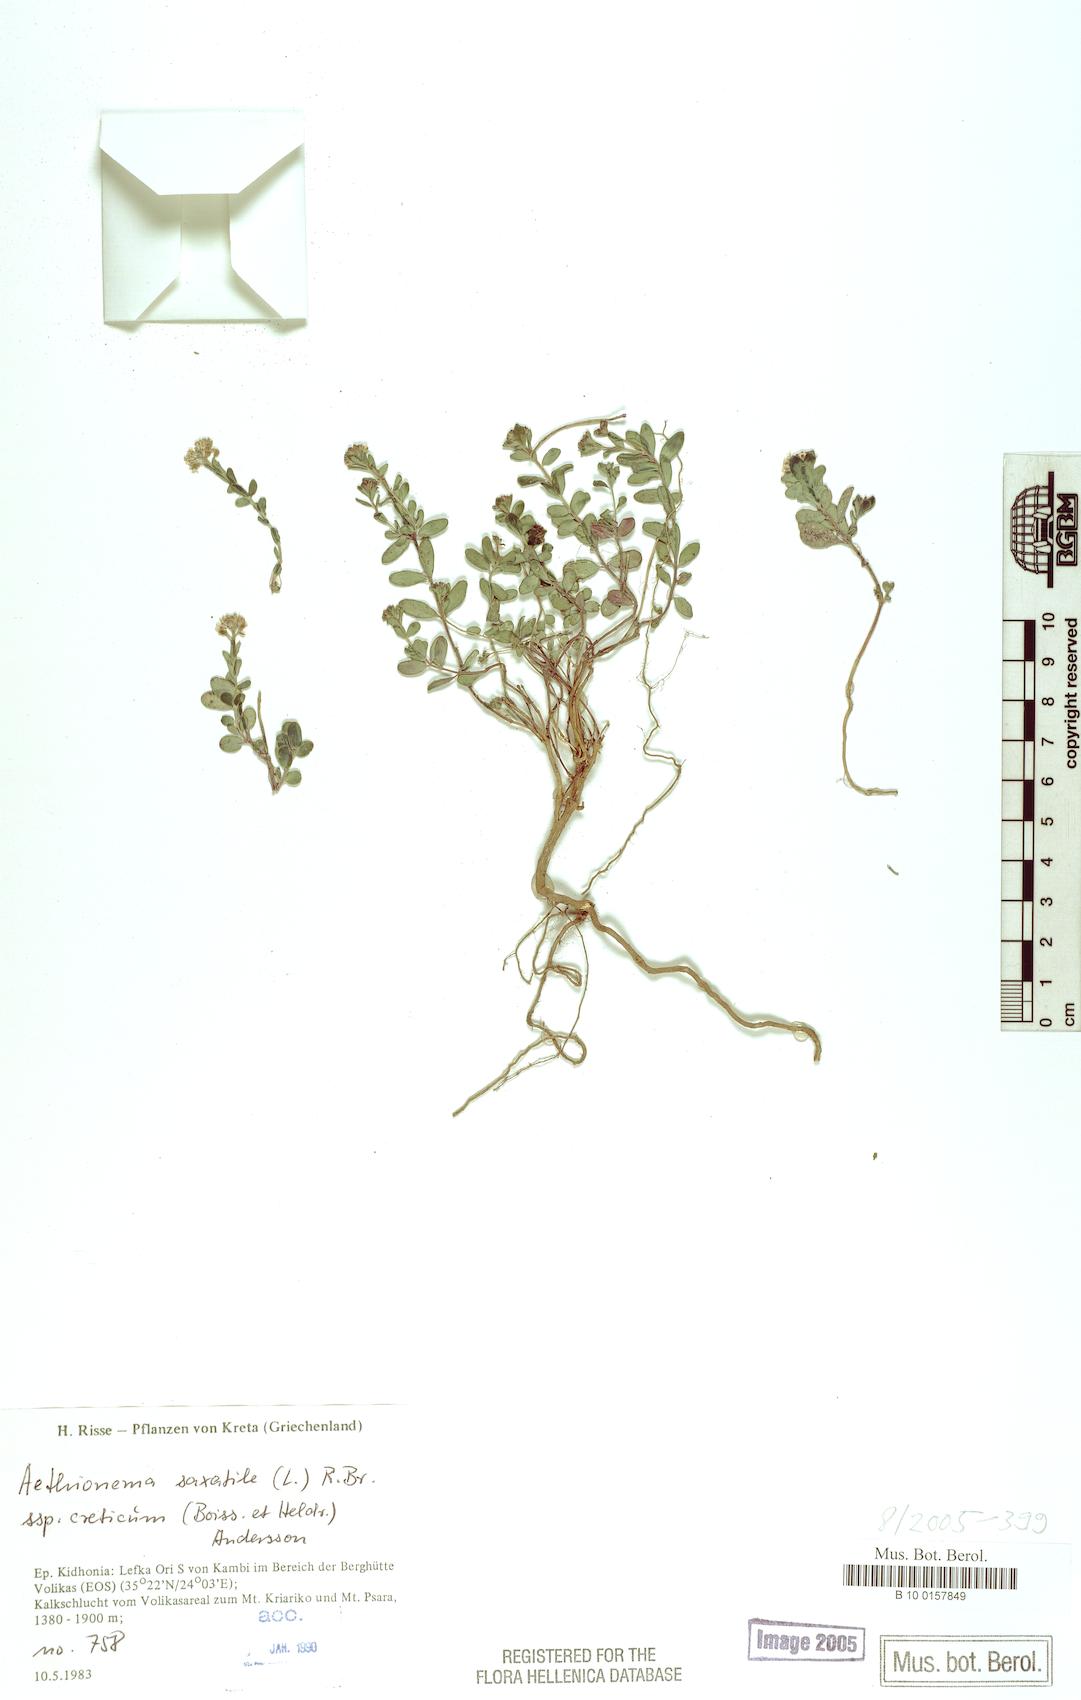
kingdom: Plantae
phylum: Tracheophyta
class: Magnoliopsida
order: Brassicales
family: Brassicaceae
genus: Aethionema
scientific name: Aethionema saxatile
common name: Burnt candytuft
